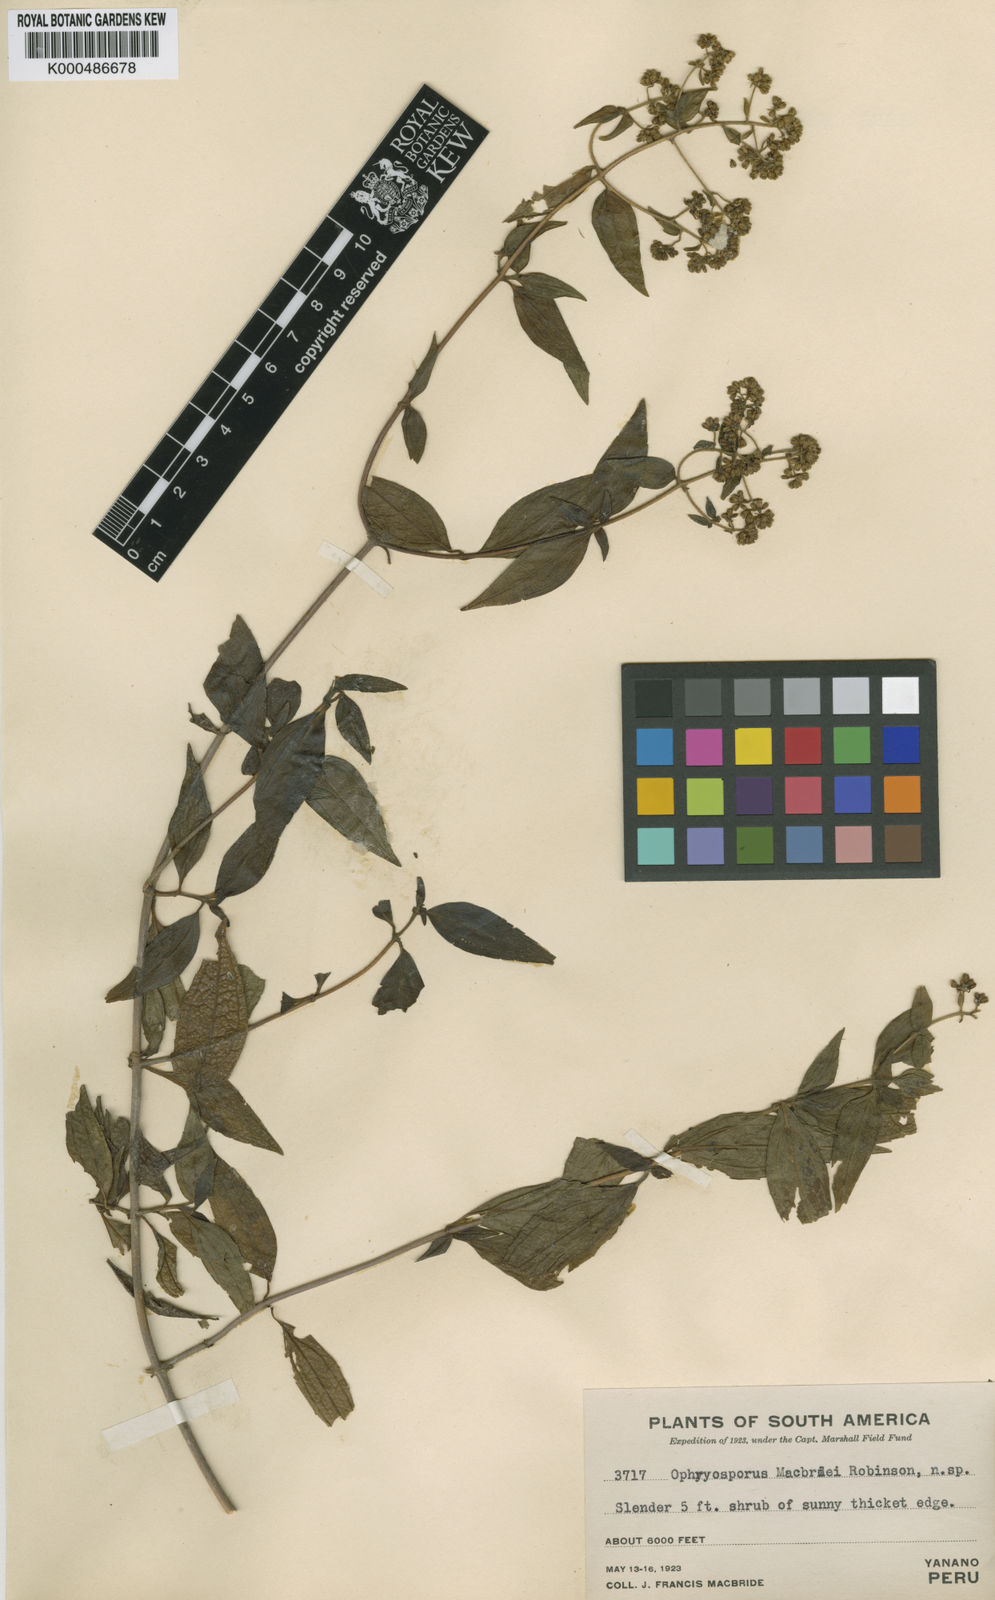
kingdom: Plantae
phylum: Tracheophyta
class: Magnoliopsida
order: Asterales
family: Asteraceae
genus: Ophryosporus
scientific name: Ophryosporus macbridei
